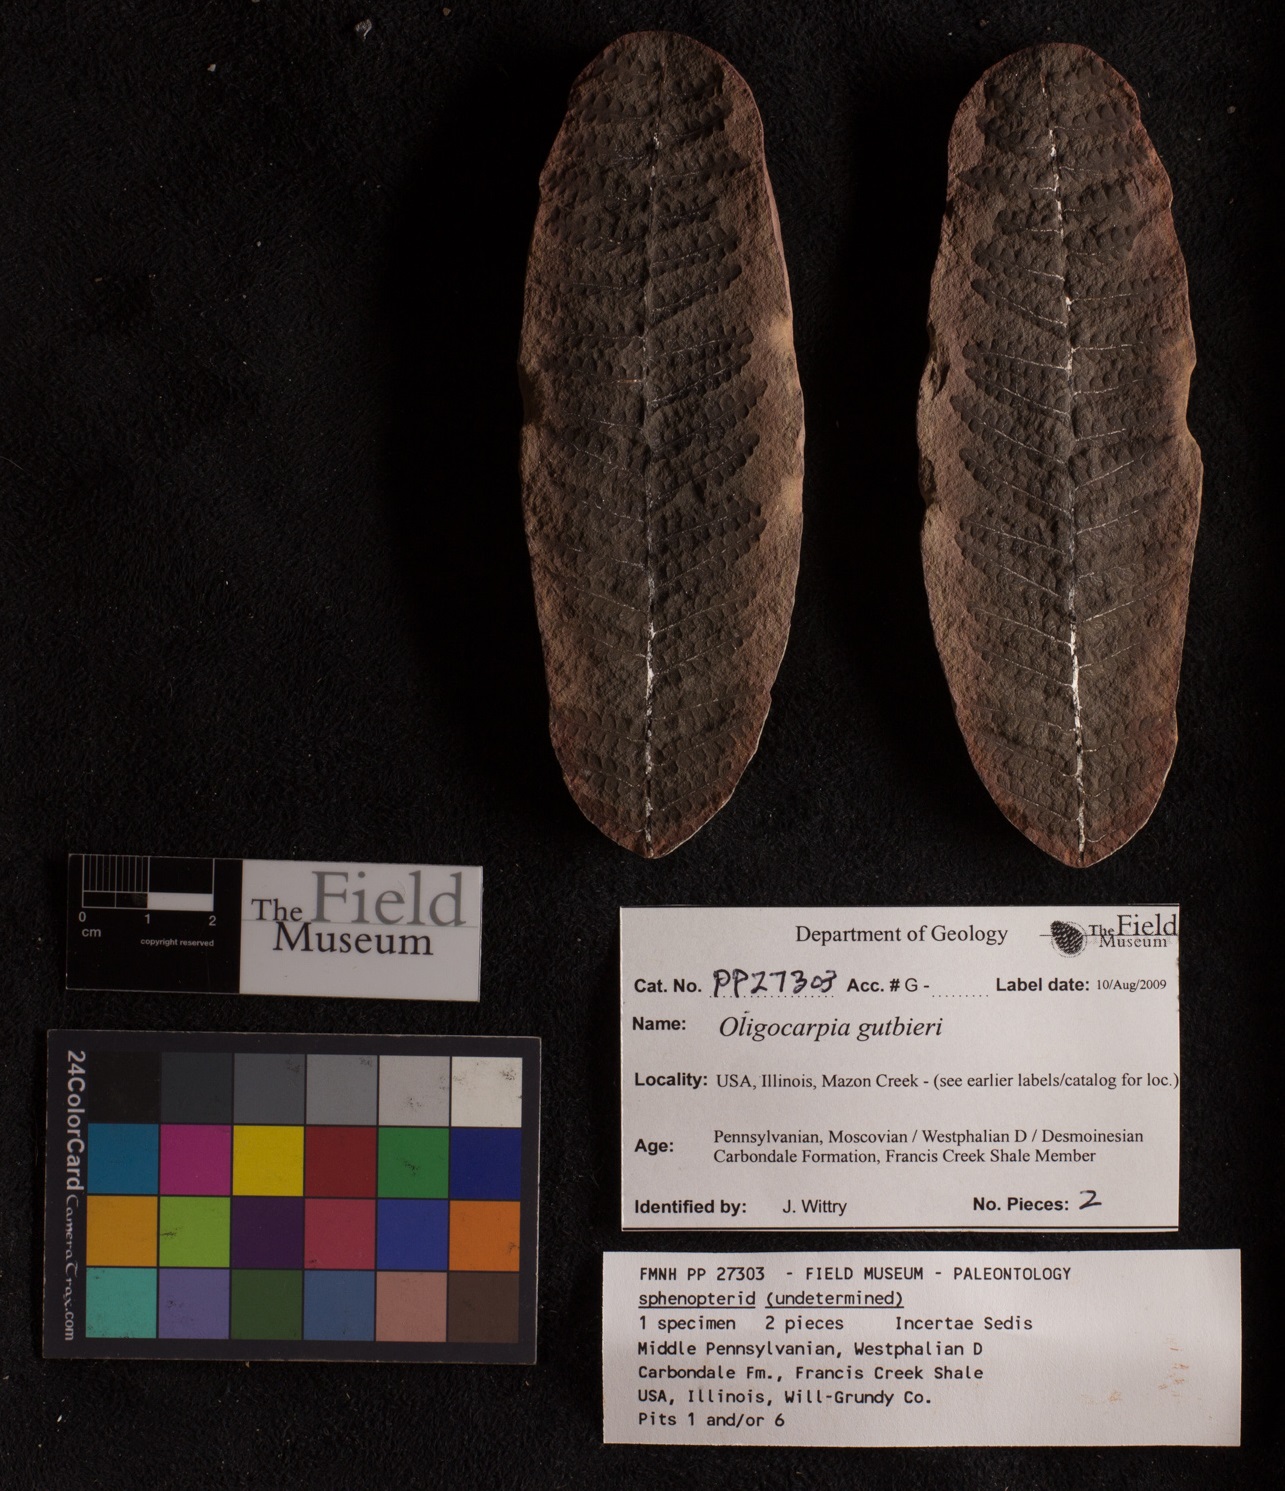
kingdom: Plantae
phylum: Tracheophyta
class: Polypodiopsida
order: Gleicheniales
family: Gleicheniaceae
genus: Oligocarpia
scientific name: Oligocarpia gutbieri
